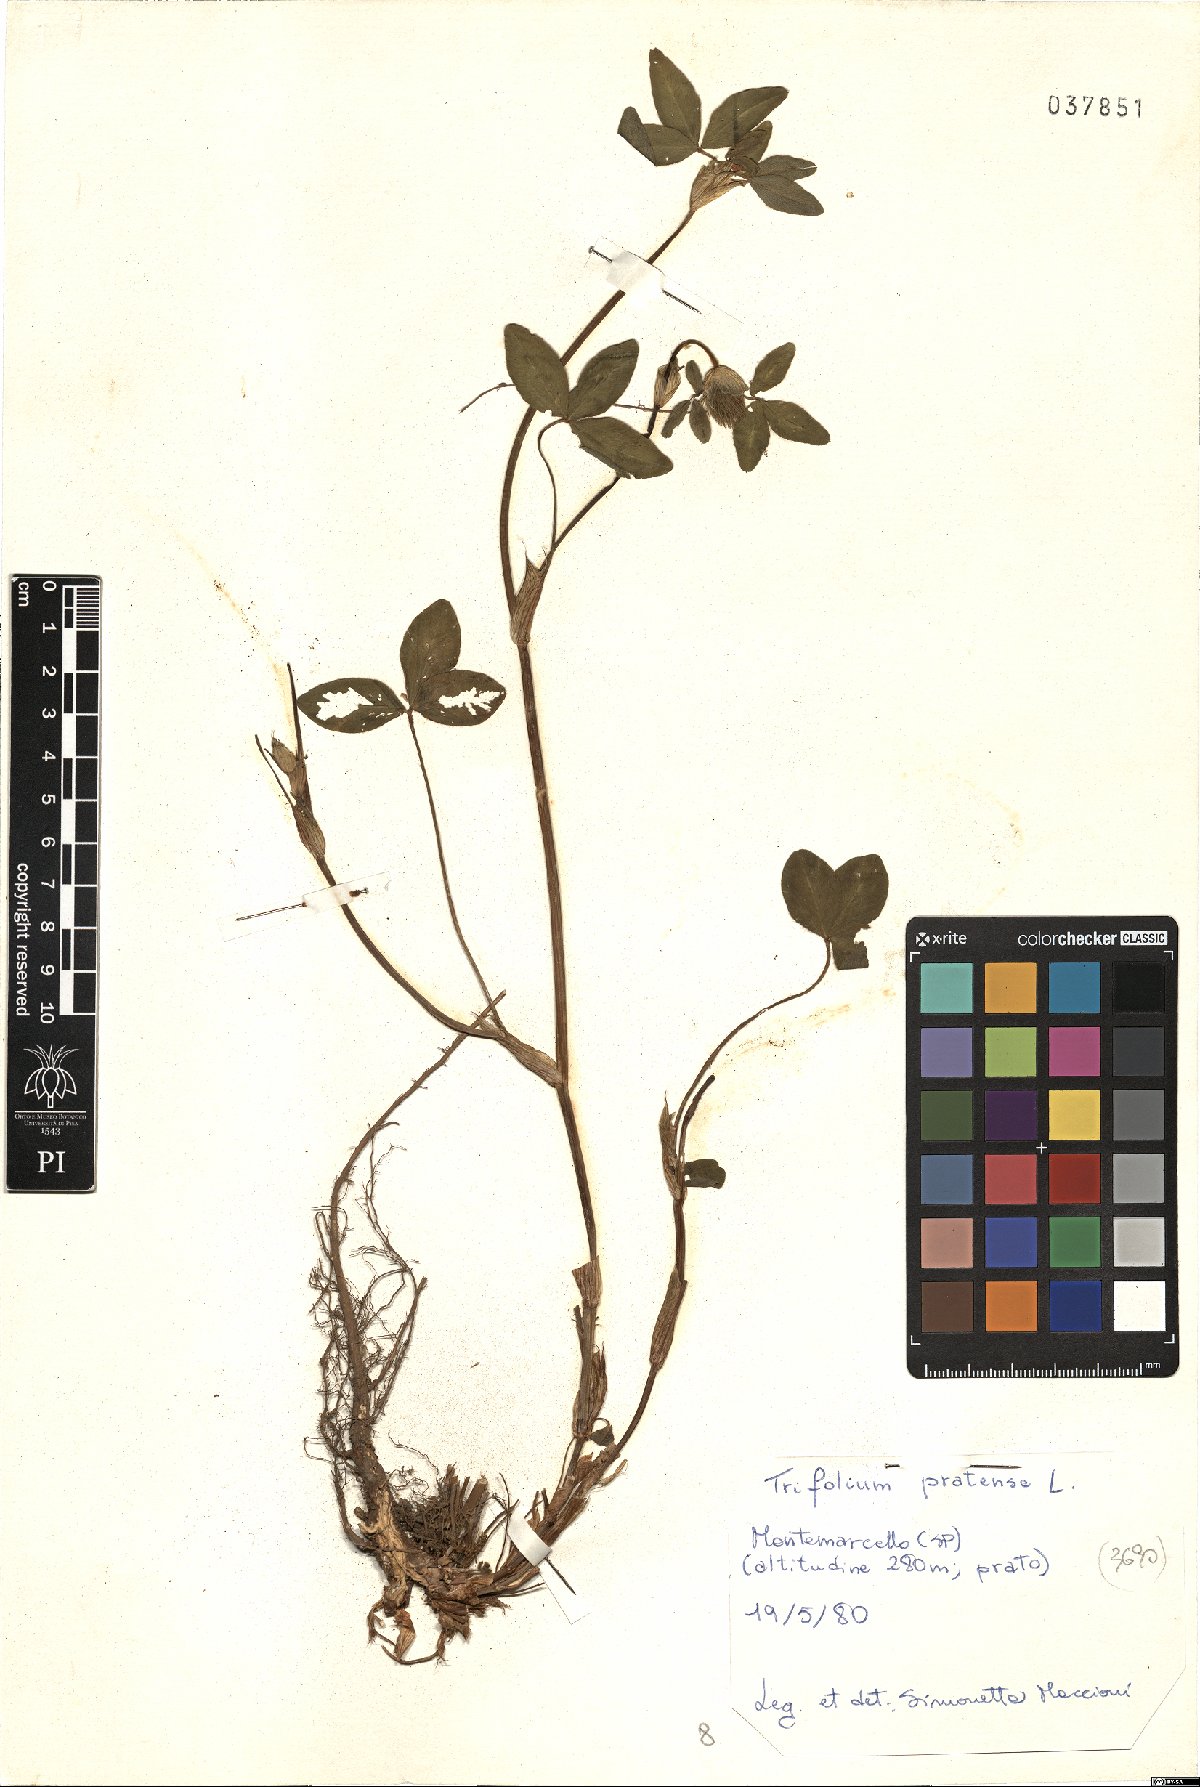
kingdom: Plantae
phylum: Tracheophyta
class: Magnoliopsida
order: Fabales
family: Fabaceae
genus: Trifolium
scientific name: Trifolium pratense
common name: Red clover
